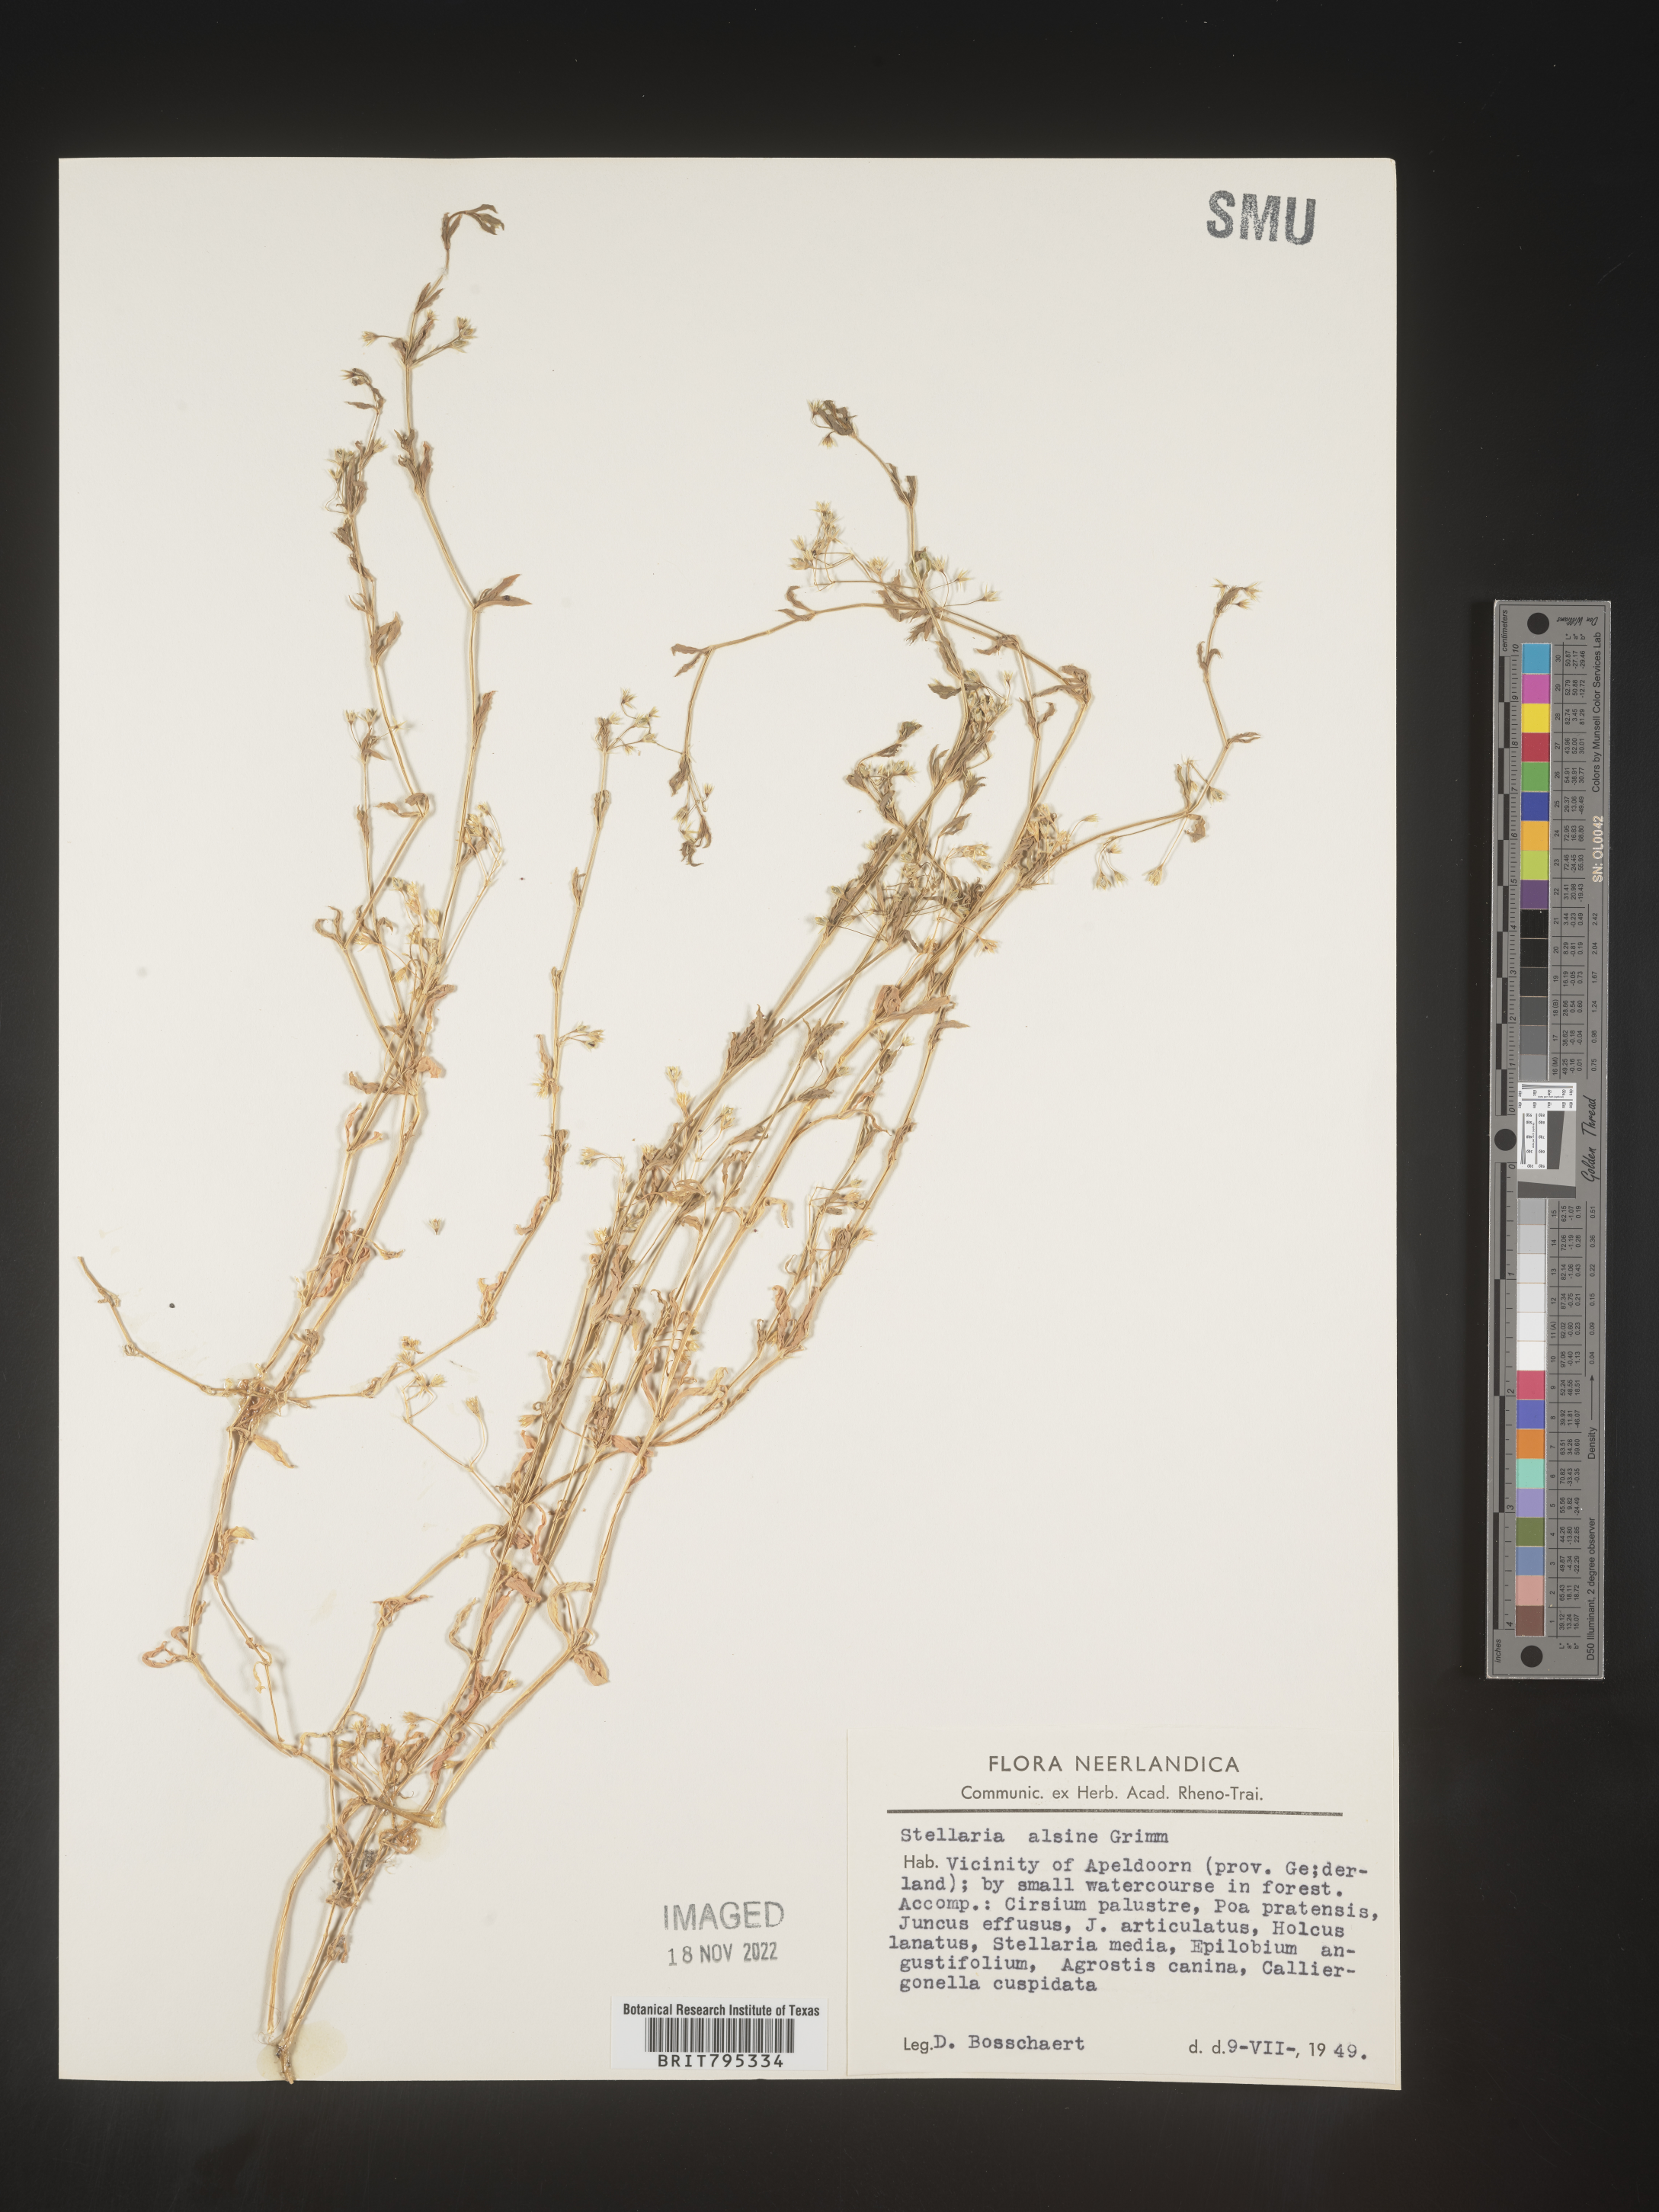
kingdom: Plantae
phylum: Tracheophyta
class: Magnoliopsida
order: Caryophyllales
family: Caryophyllaceae
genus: Stellaria
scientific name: Stellaria
